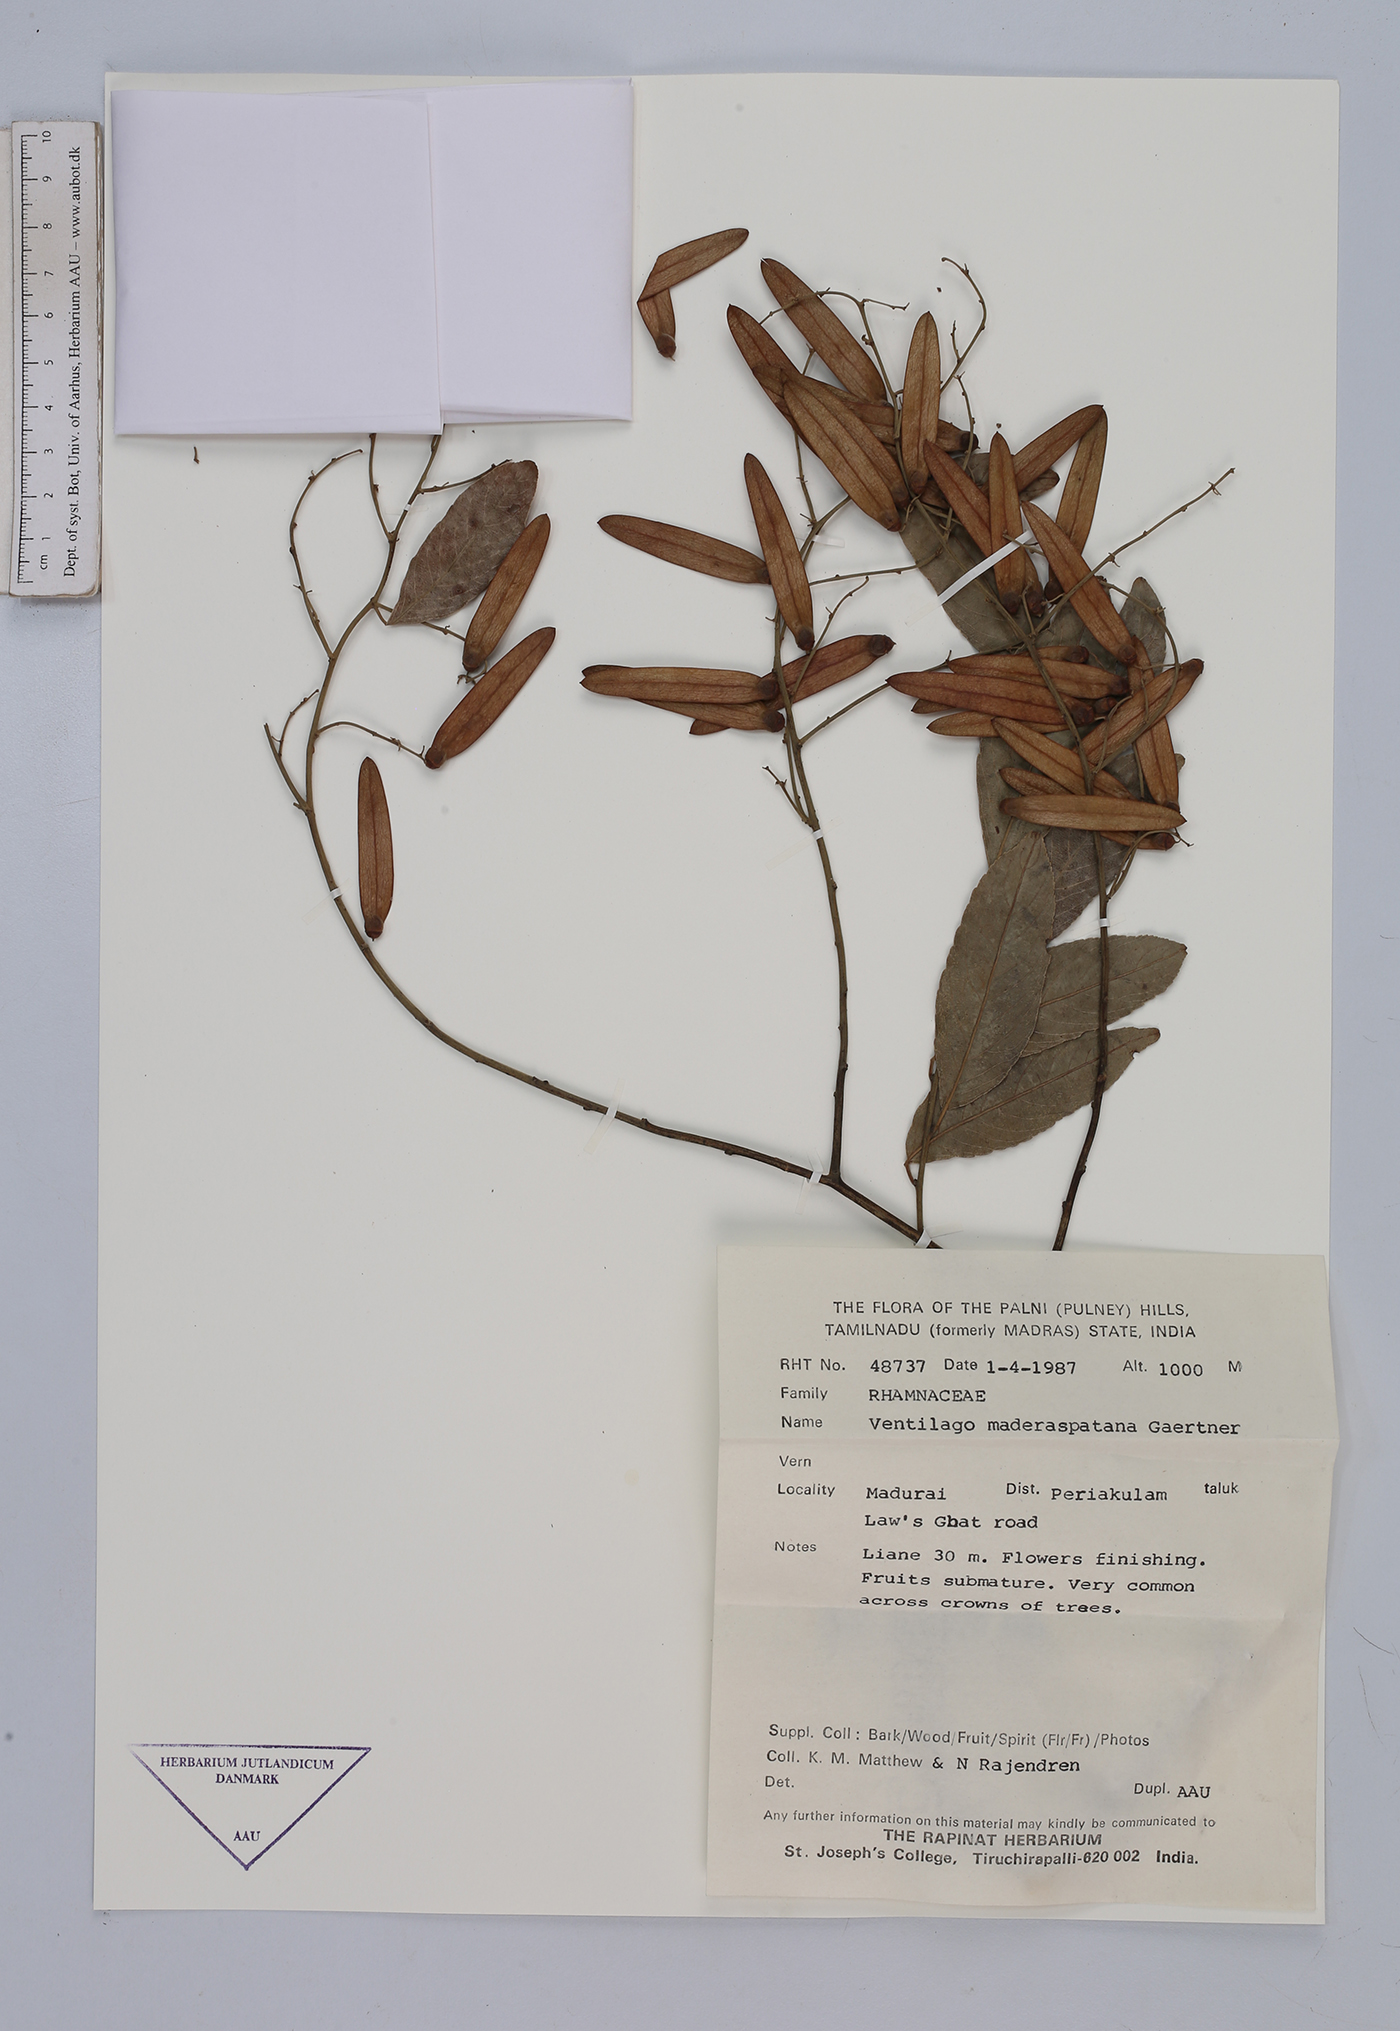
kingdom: Plantae
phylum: Tracheophyta
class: Magnoliopsida
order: Rosales
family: Rhamnaceae
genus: Ventilago
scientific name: Ventilago maderaspatana
